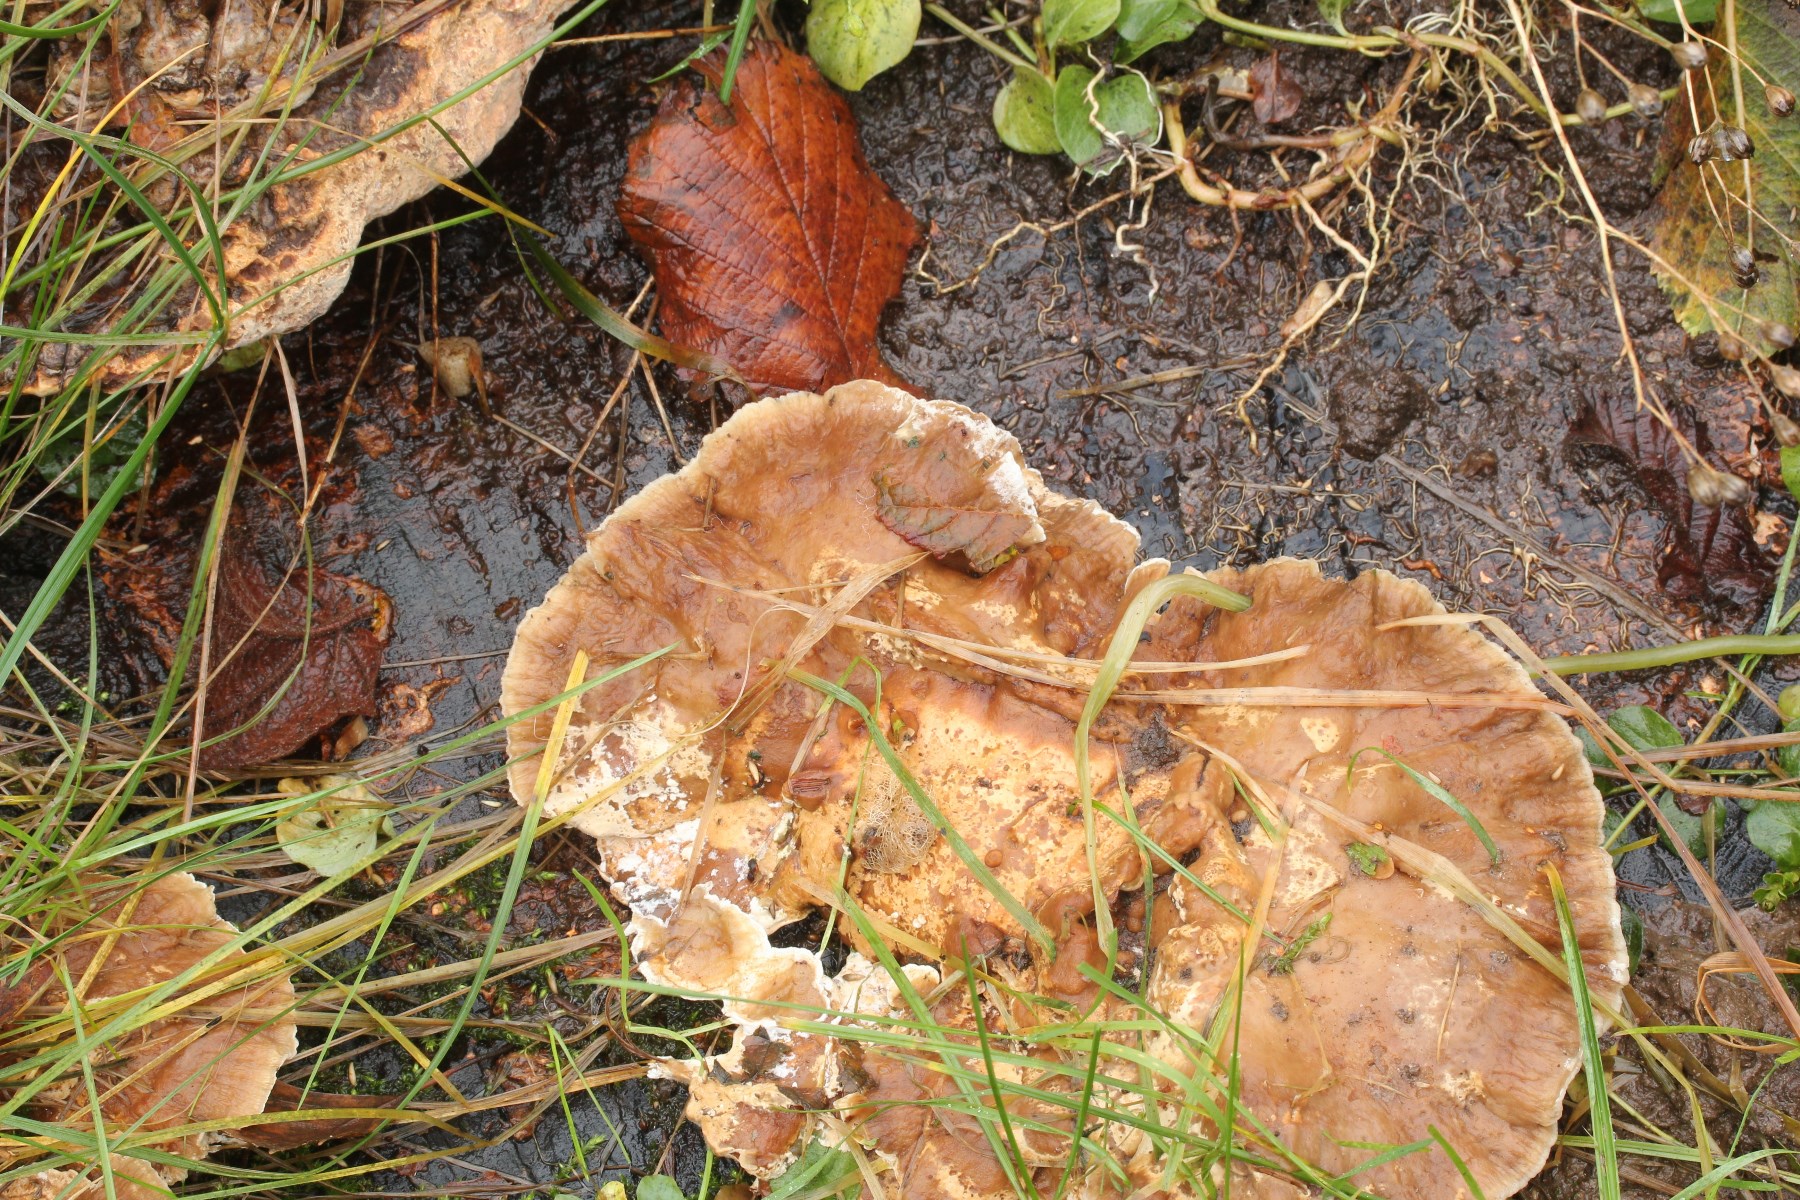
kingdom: Fungi
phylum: Basidiomycota
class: Agaricomycetes
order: Polyporales
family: Phanerochaetaceae
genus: Bjerkandera
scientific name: Bjerkandera fumosa
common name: grågul sodporesvamp
